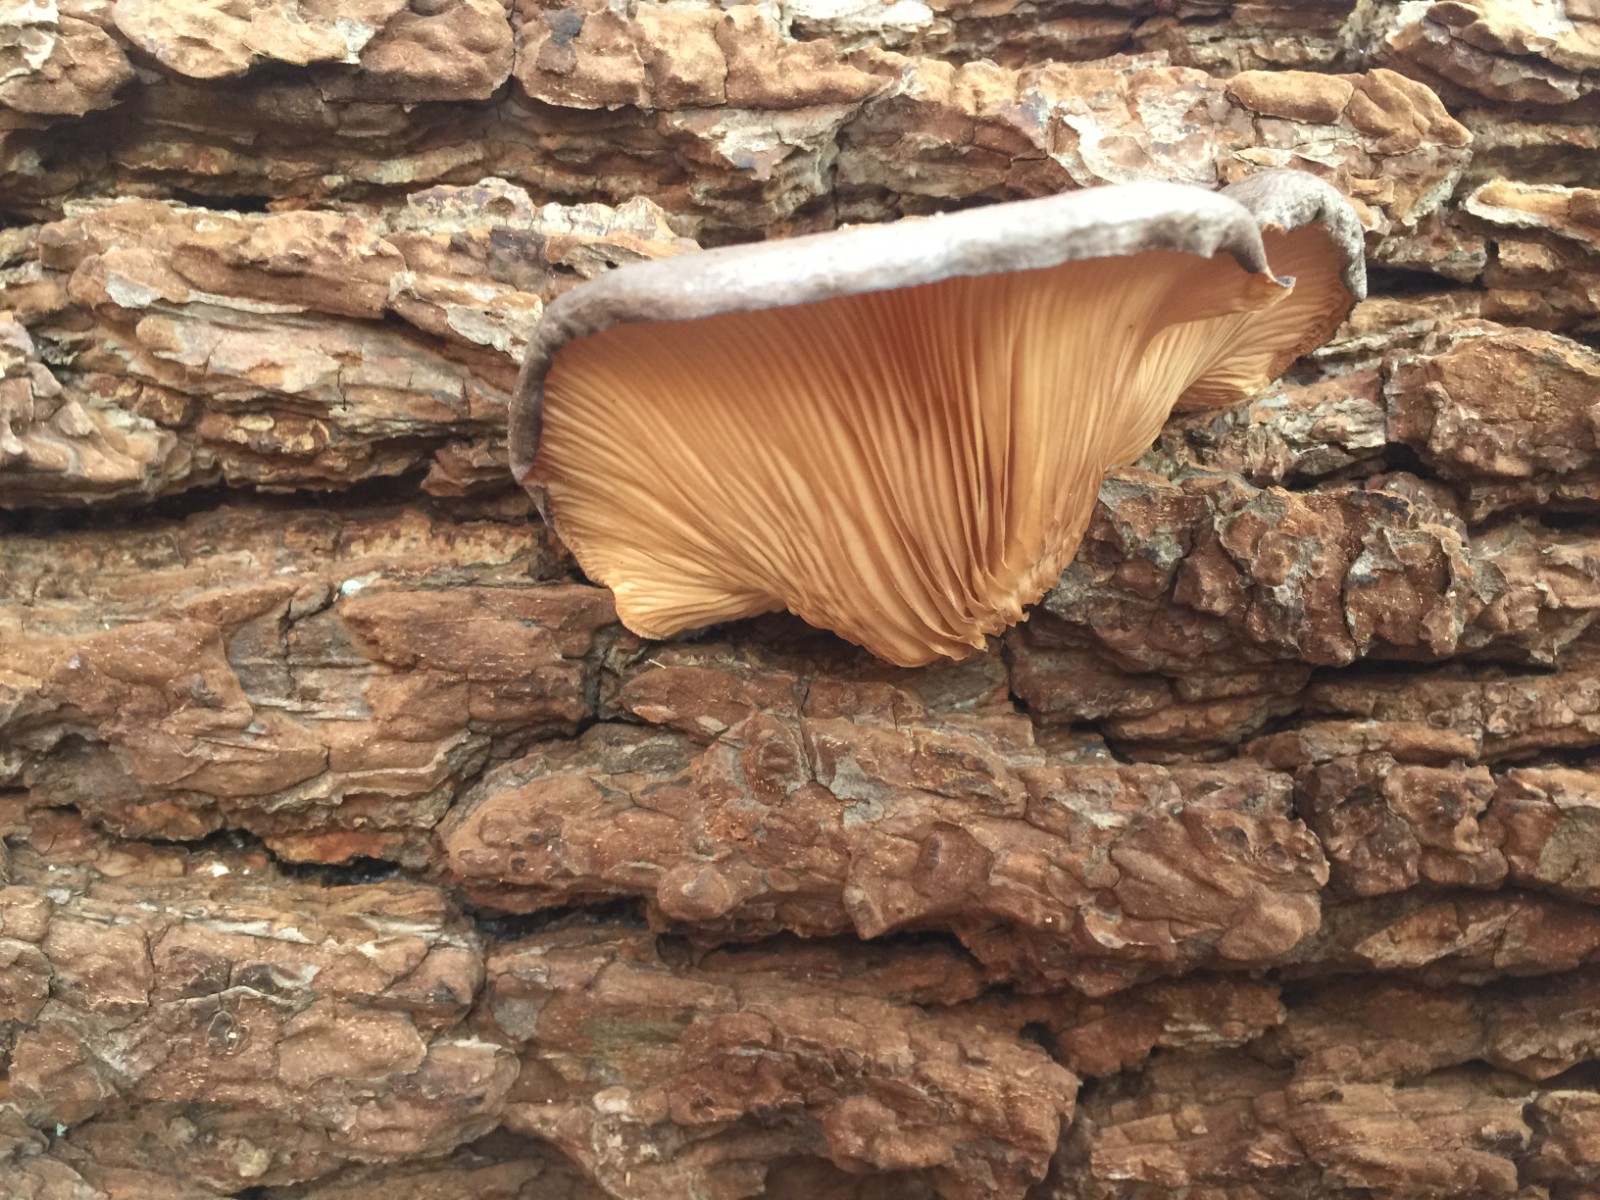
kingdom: Fungi
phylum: Basidiomycota
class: Agaricomycetes
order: Agaricales
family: Pleurotaceae
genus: Pleurotus
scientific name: Pleurotus ostreatus
